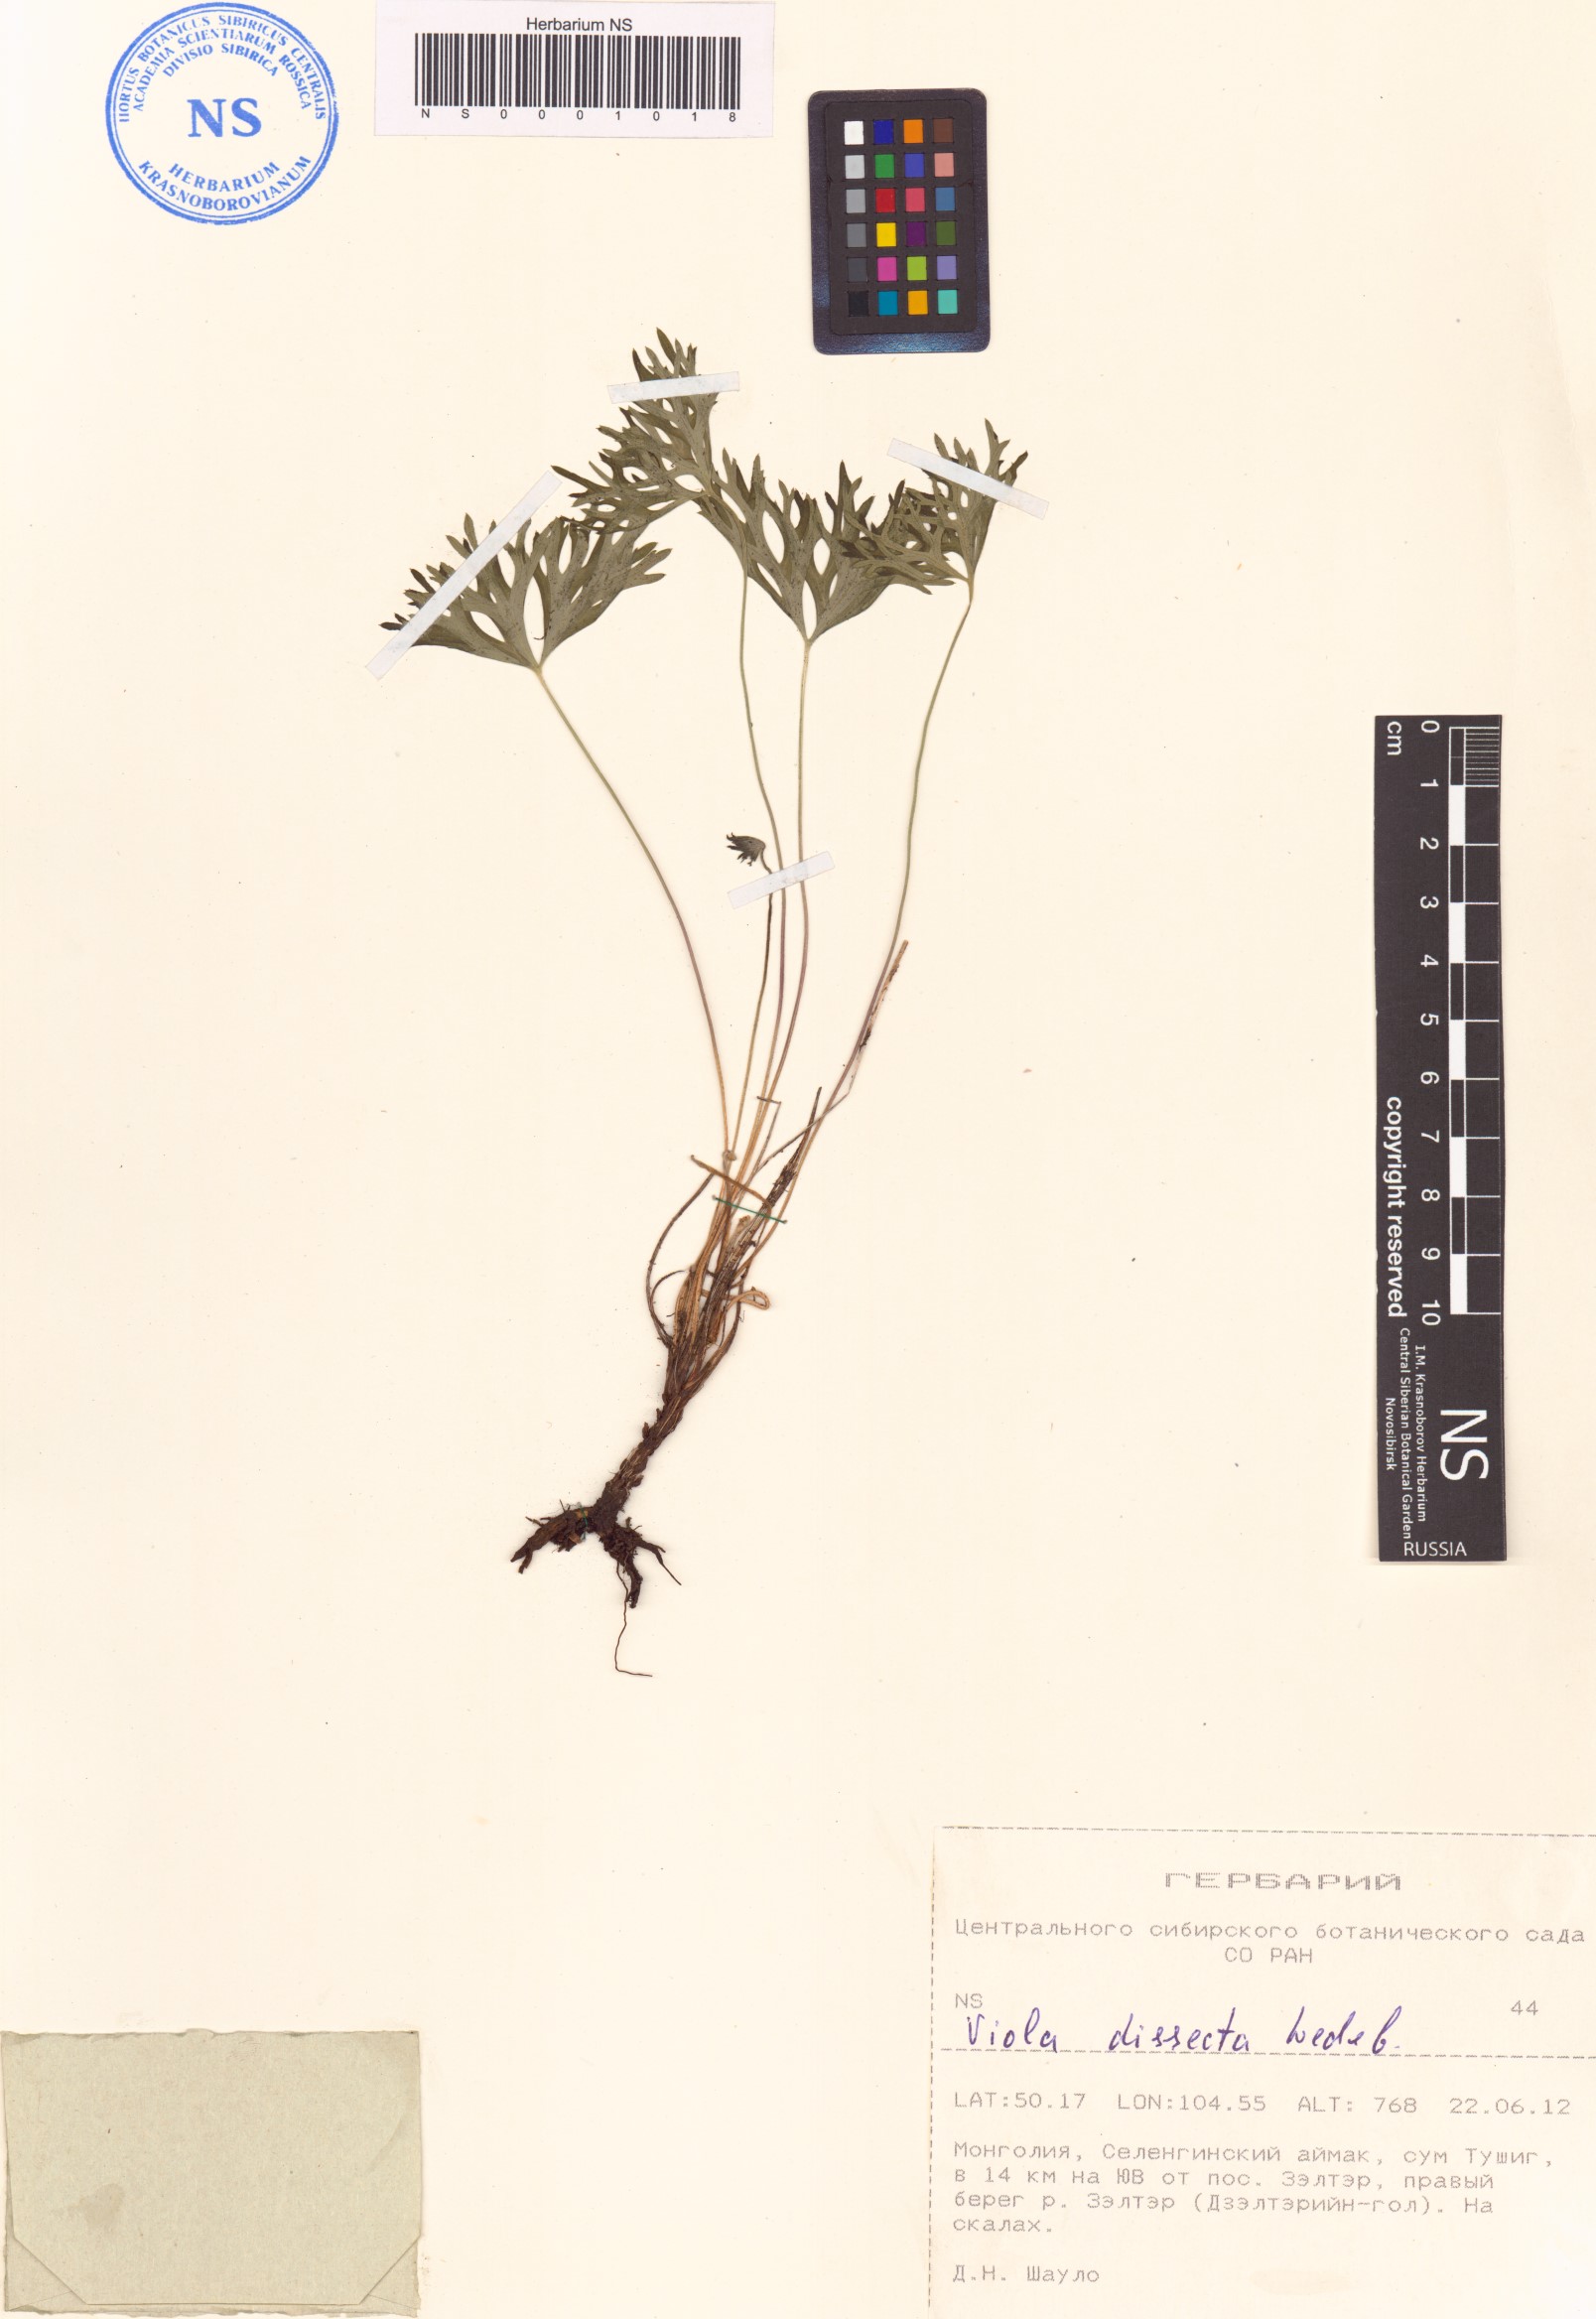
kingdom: Plantae
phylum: Tracheophyta
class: Magnoliopsida
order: Malpighiales
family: Violaceae
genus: Viola
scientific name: Viola multifida
